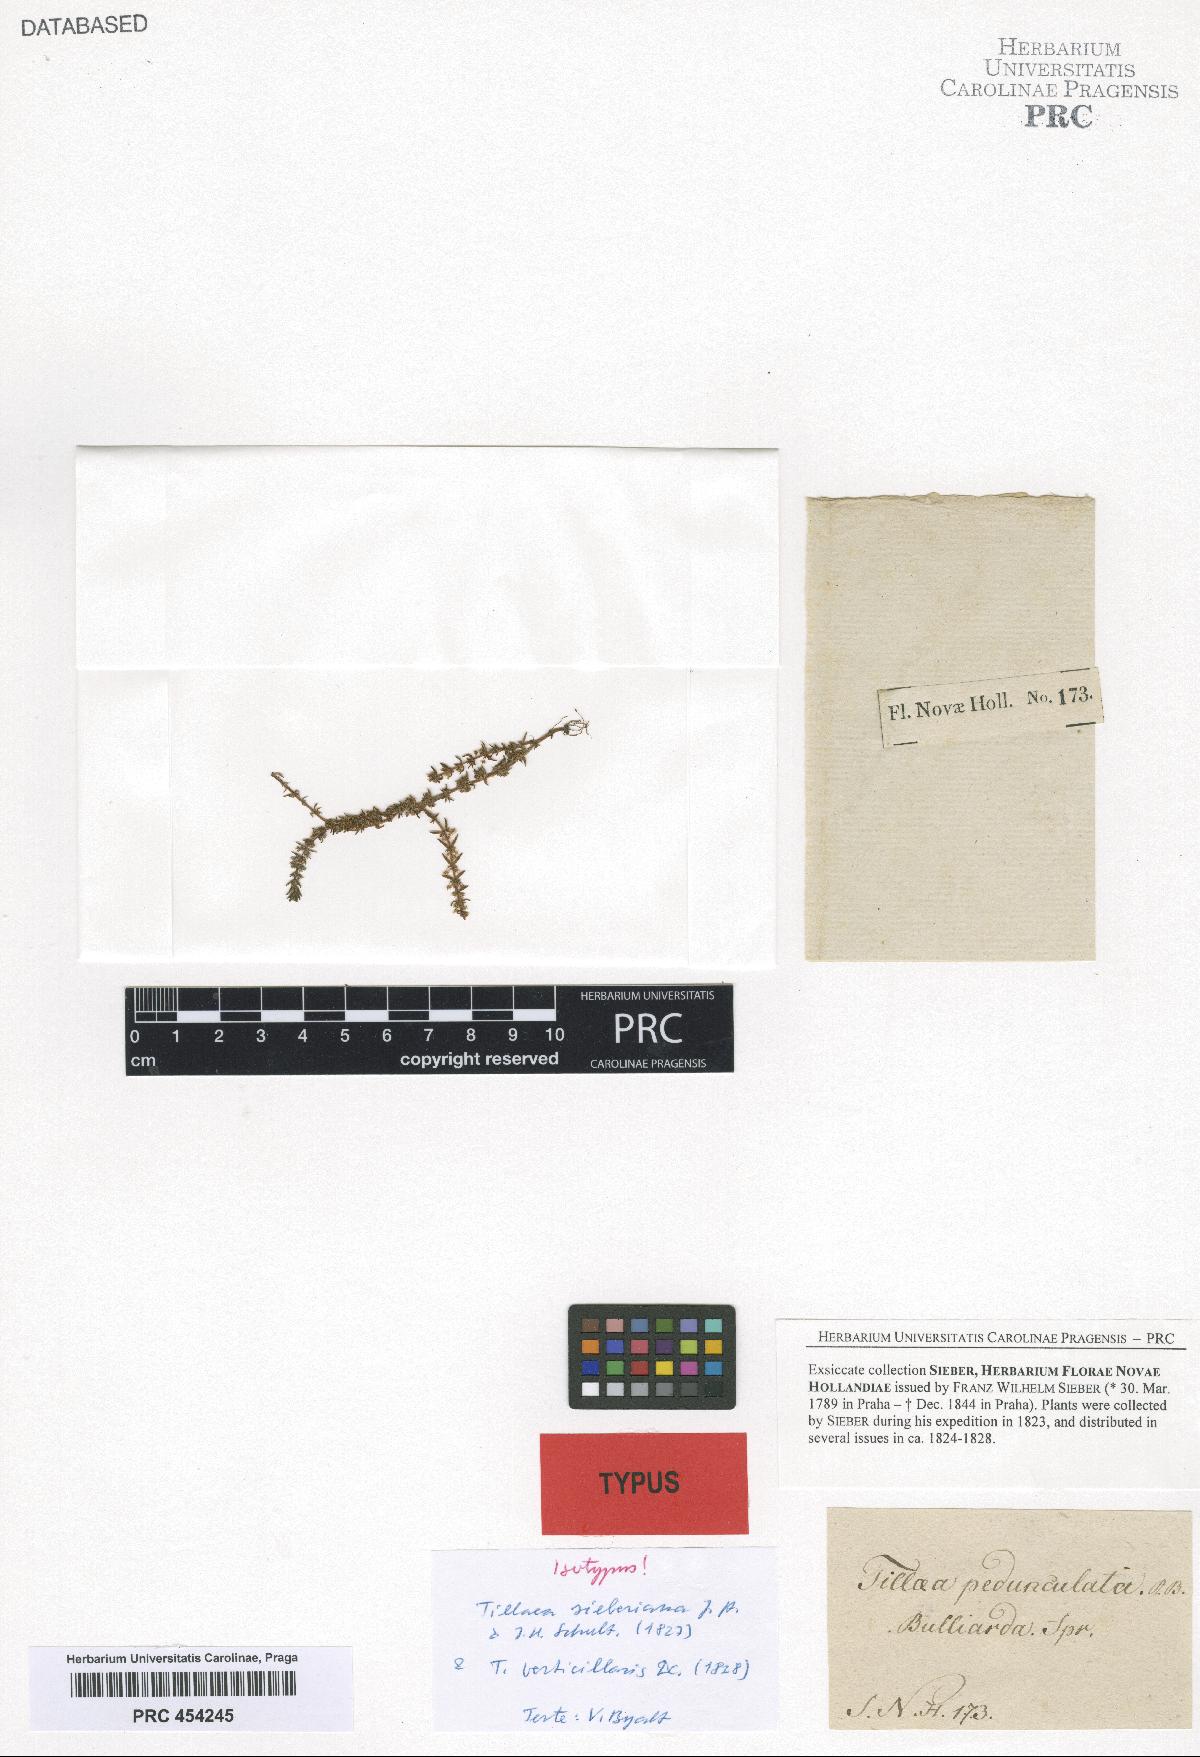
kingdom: Plantae
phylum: Tracheophyta
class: Magnoliopsida
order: Saxifragales
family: Crassulaceae
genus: Crassula
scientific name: Crassula sieberiana
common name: Siberian pygmyweed
